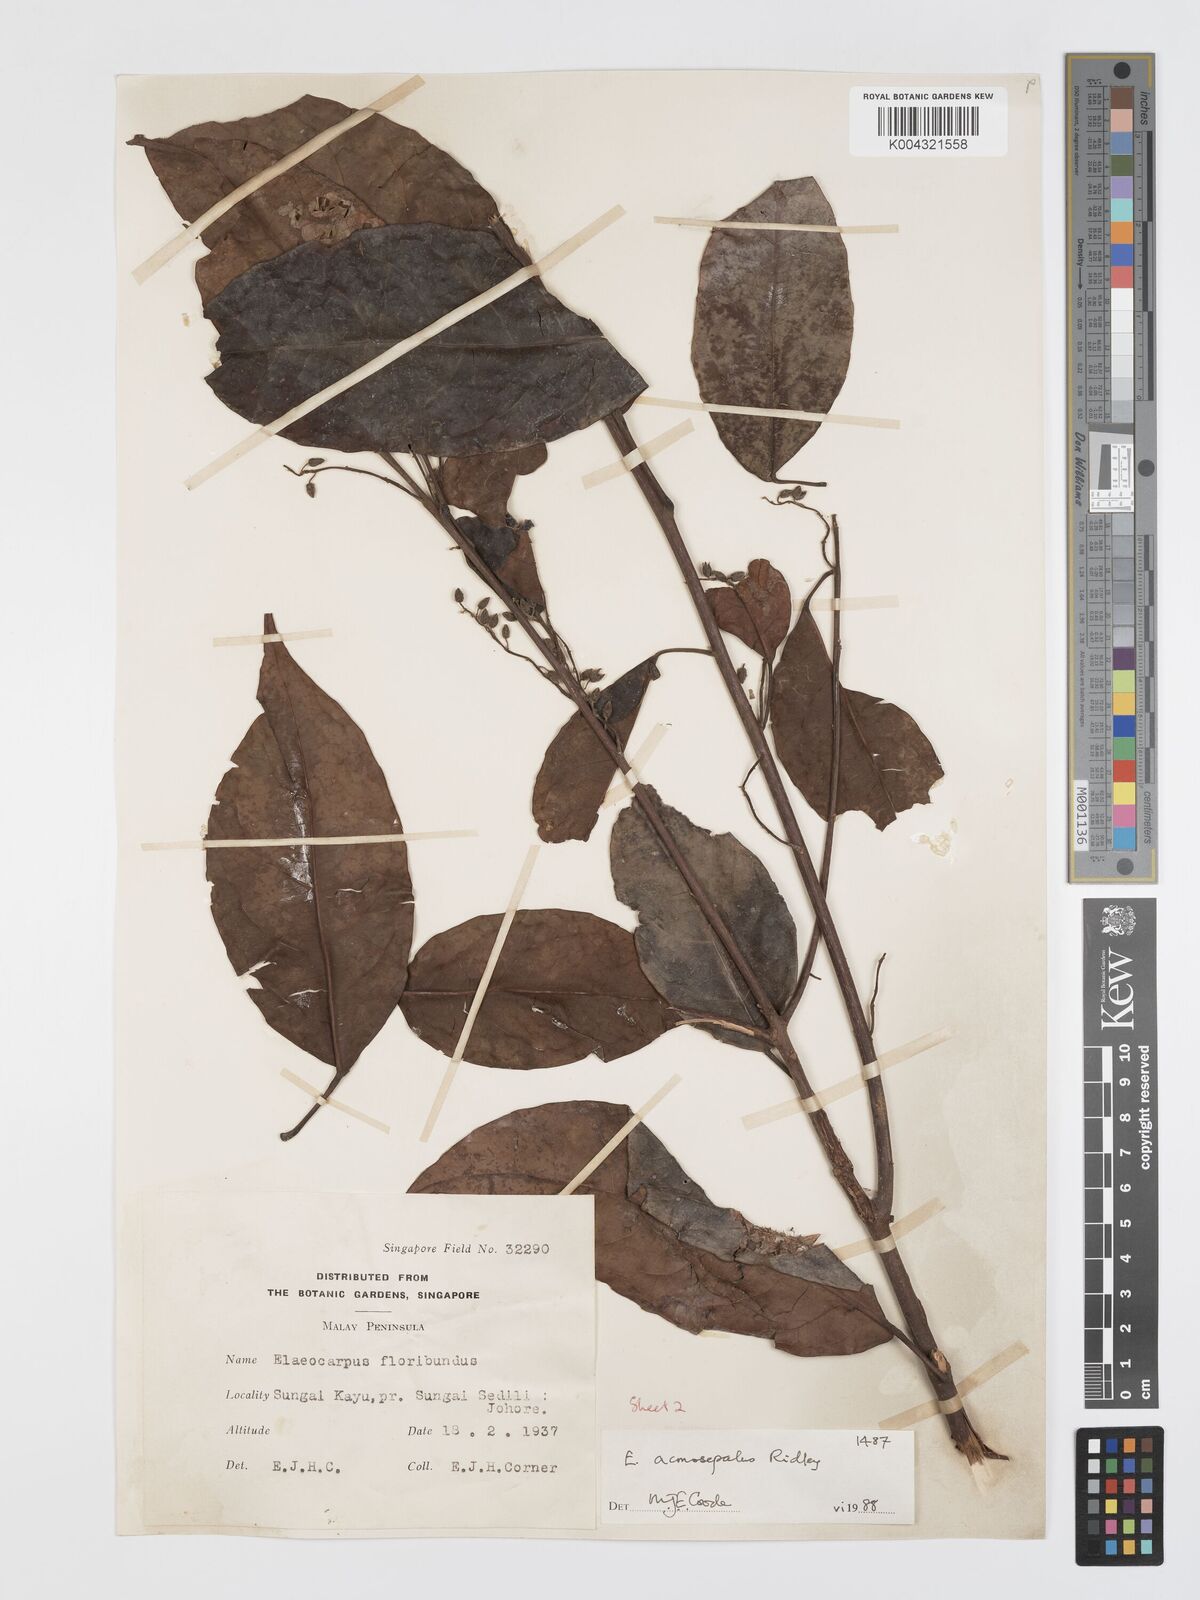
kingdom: Plantae
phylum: Tracheophyta
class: Magnoliopsida
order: Oxalidales
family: Elaeocarpaceae
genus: Elaeocarpus
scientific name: Elaeocarpus acmosepalus
